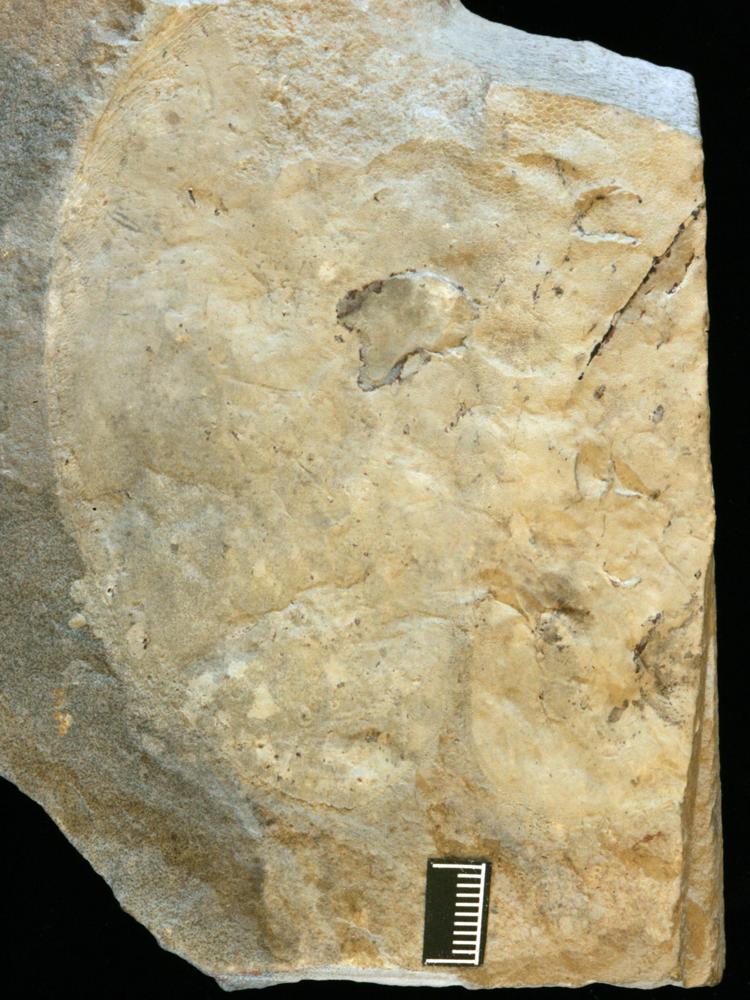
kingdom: Plantae
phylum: Tracheophyta
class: Pinopsida
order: Pinales
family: Cupressaceae
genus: Platycladus
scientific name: Platycladus
